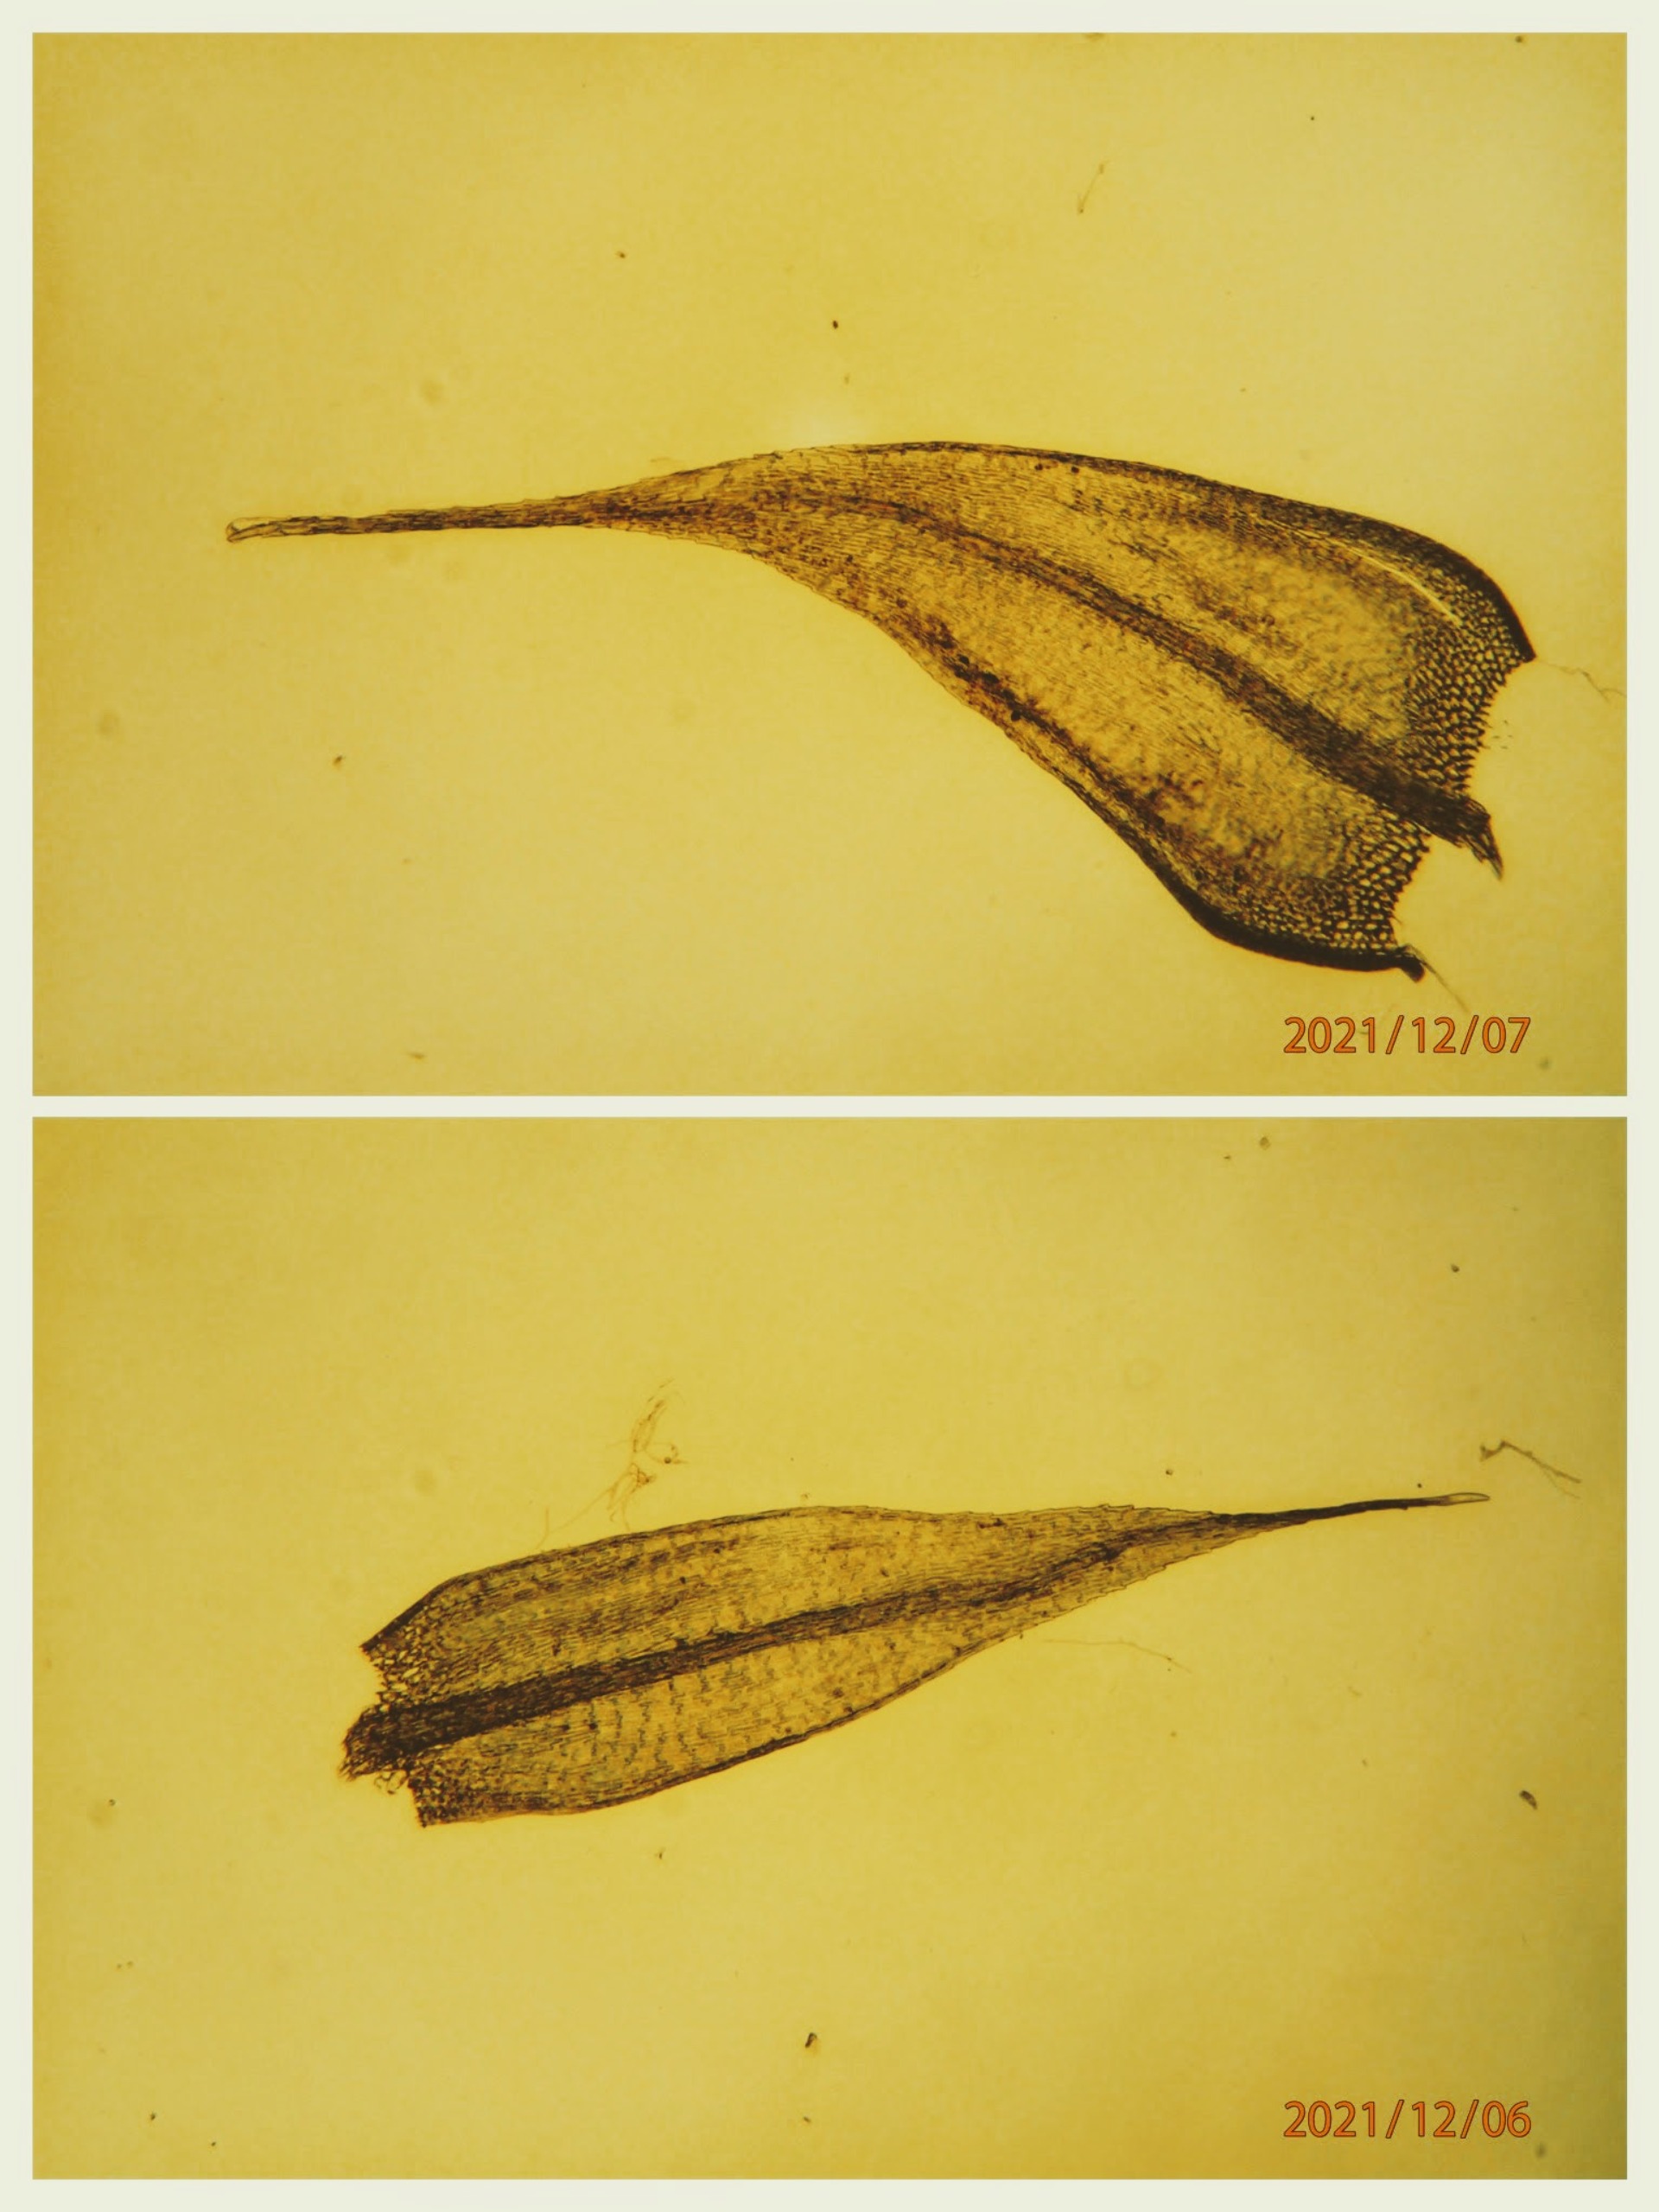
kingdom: Plantae
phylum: Bryophyta
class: Bryopsida
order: Hypnales
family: Brachytheciaceae
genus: Sciuro-hypnum
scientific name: Sciuro-hypnum populeum
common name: Park-kortkapsel
